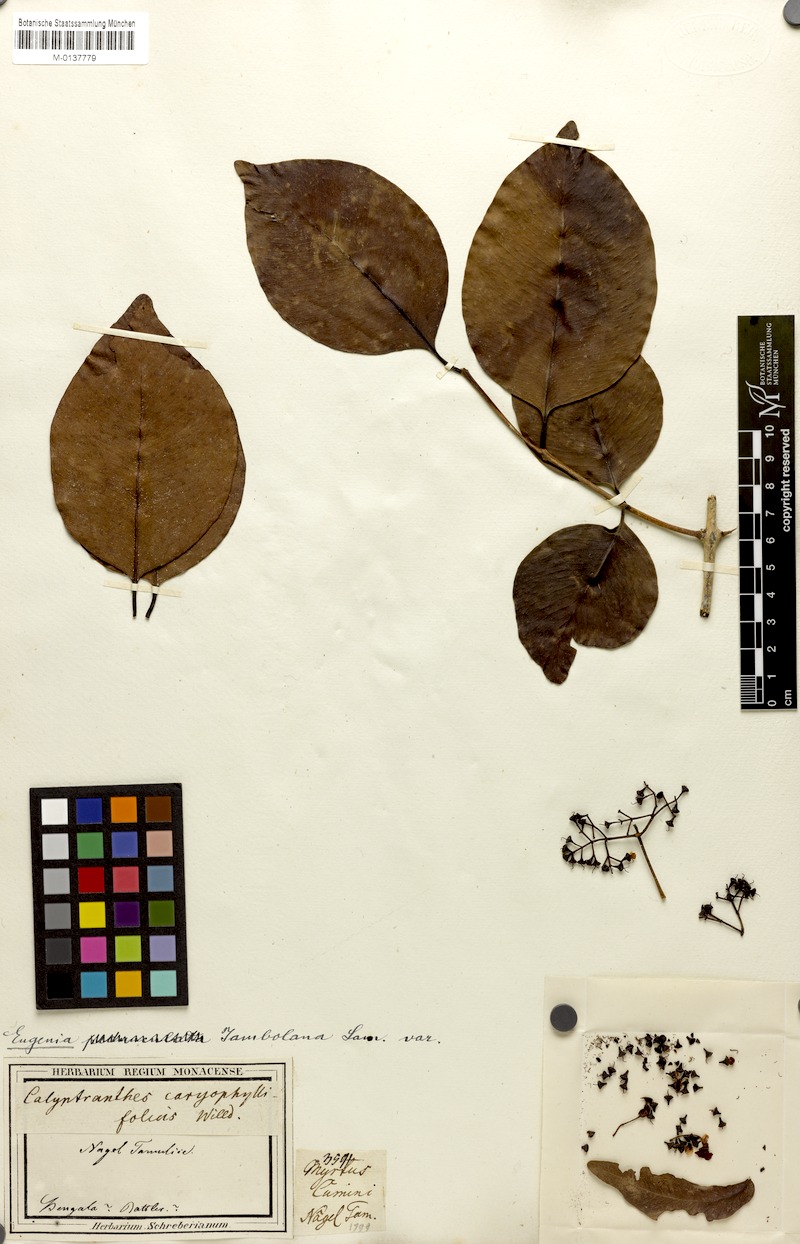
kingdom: Plantae
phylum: Tracheophyta
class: Magnoliopsida
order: Myrtales
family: Myrtaceae
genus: Syzygium
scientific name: Syzygium cumini
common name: Java plum
